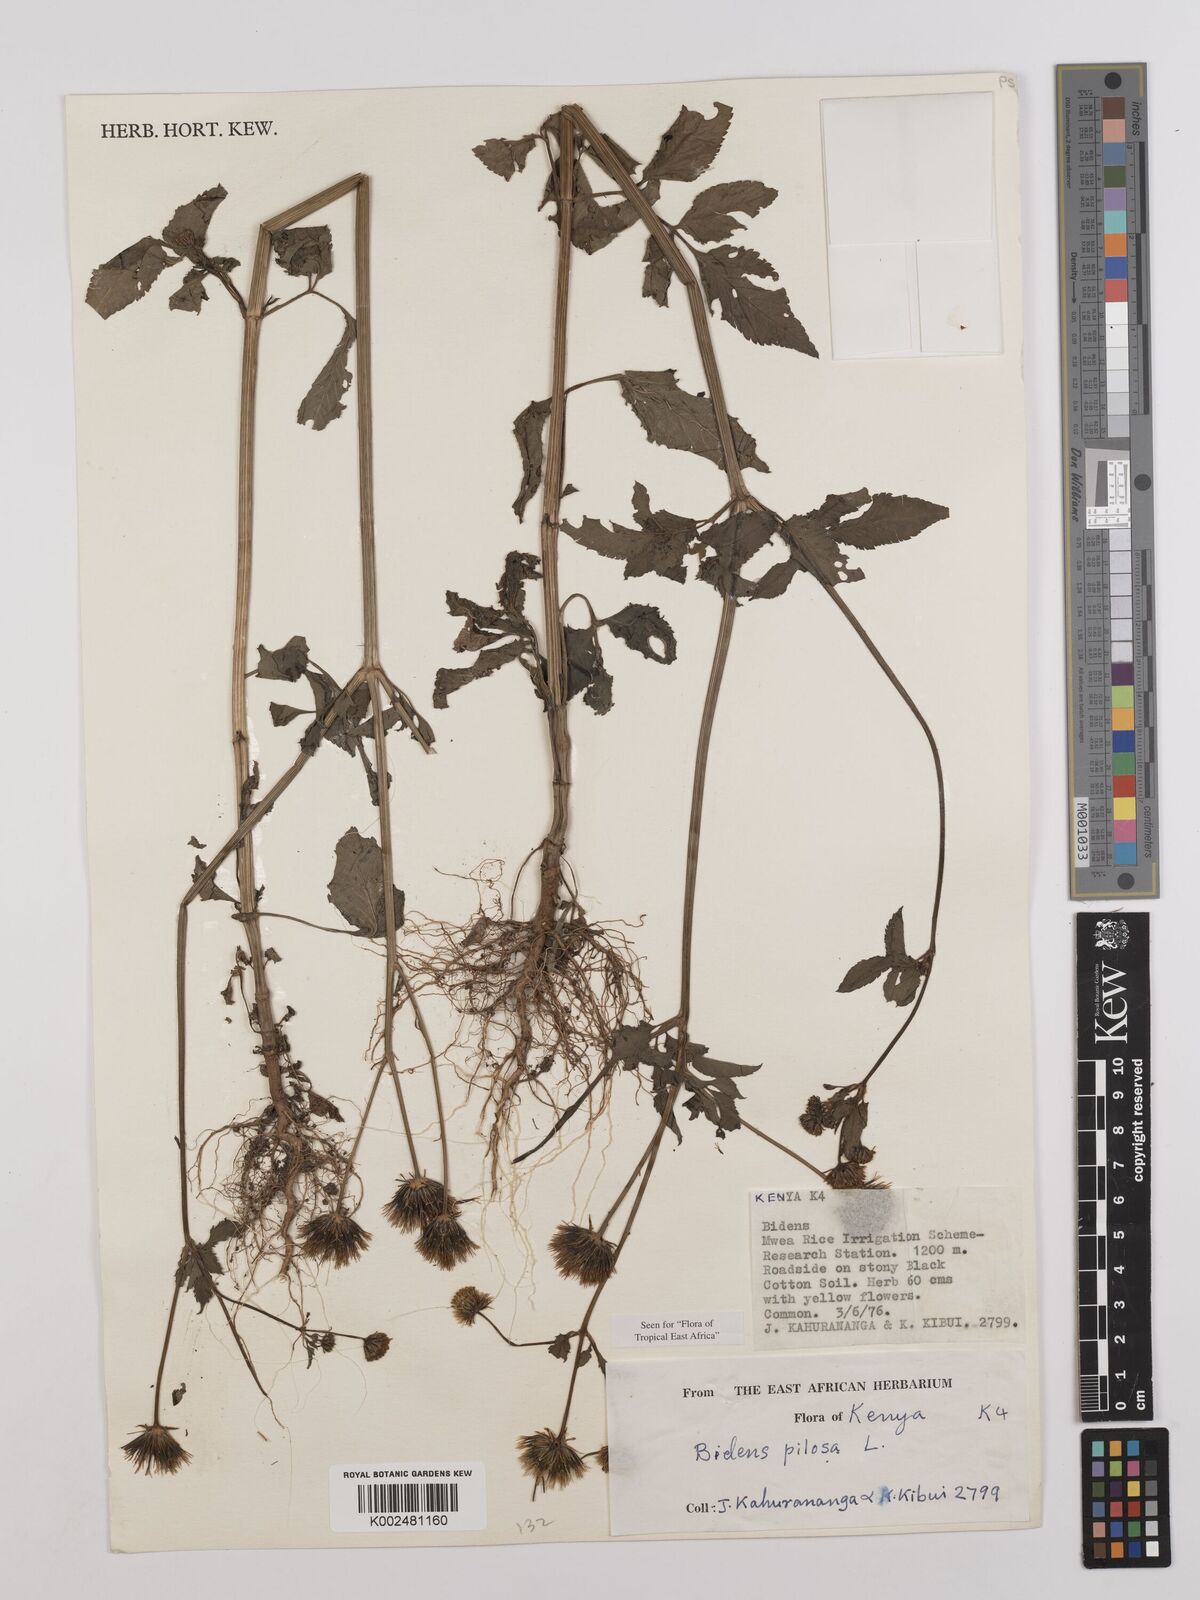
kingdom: Plantae
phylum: Tracheophyta
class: Magnoliopsida
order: Asterales
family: Asteraceae
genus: Bidens
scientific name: Bidens pilosa
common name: Black-jack
